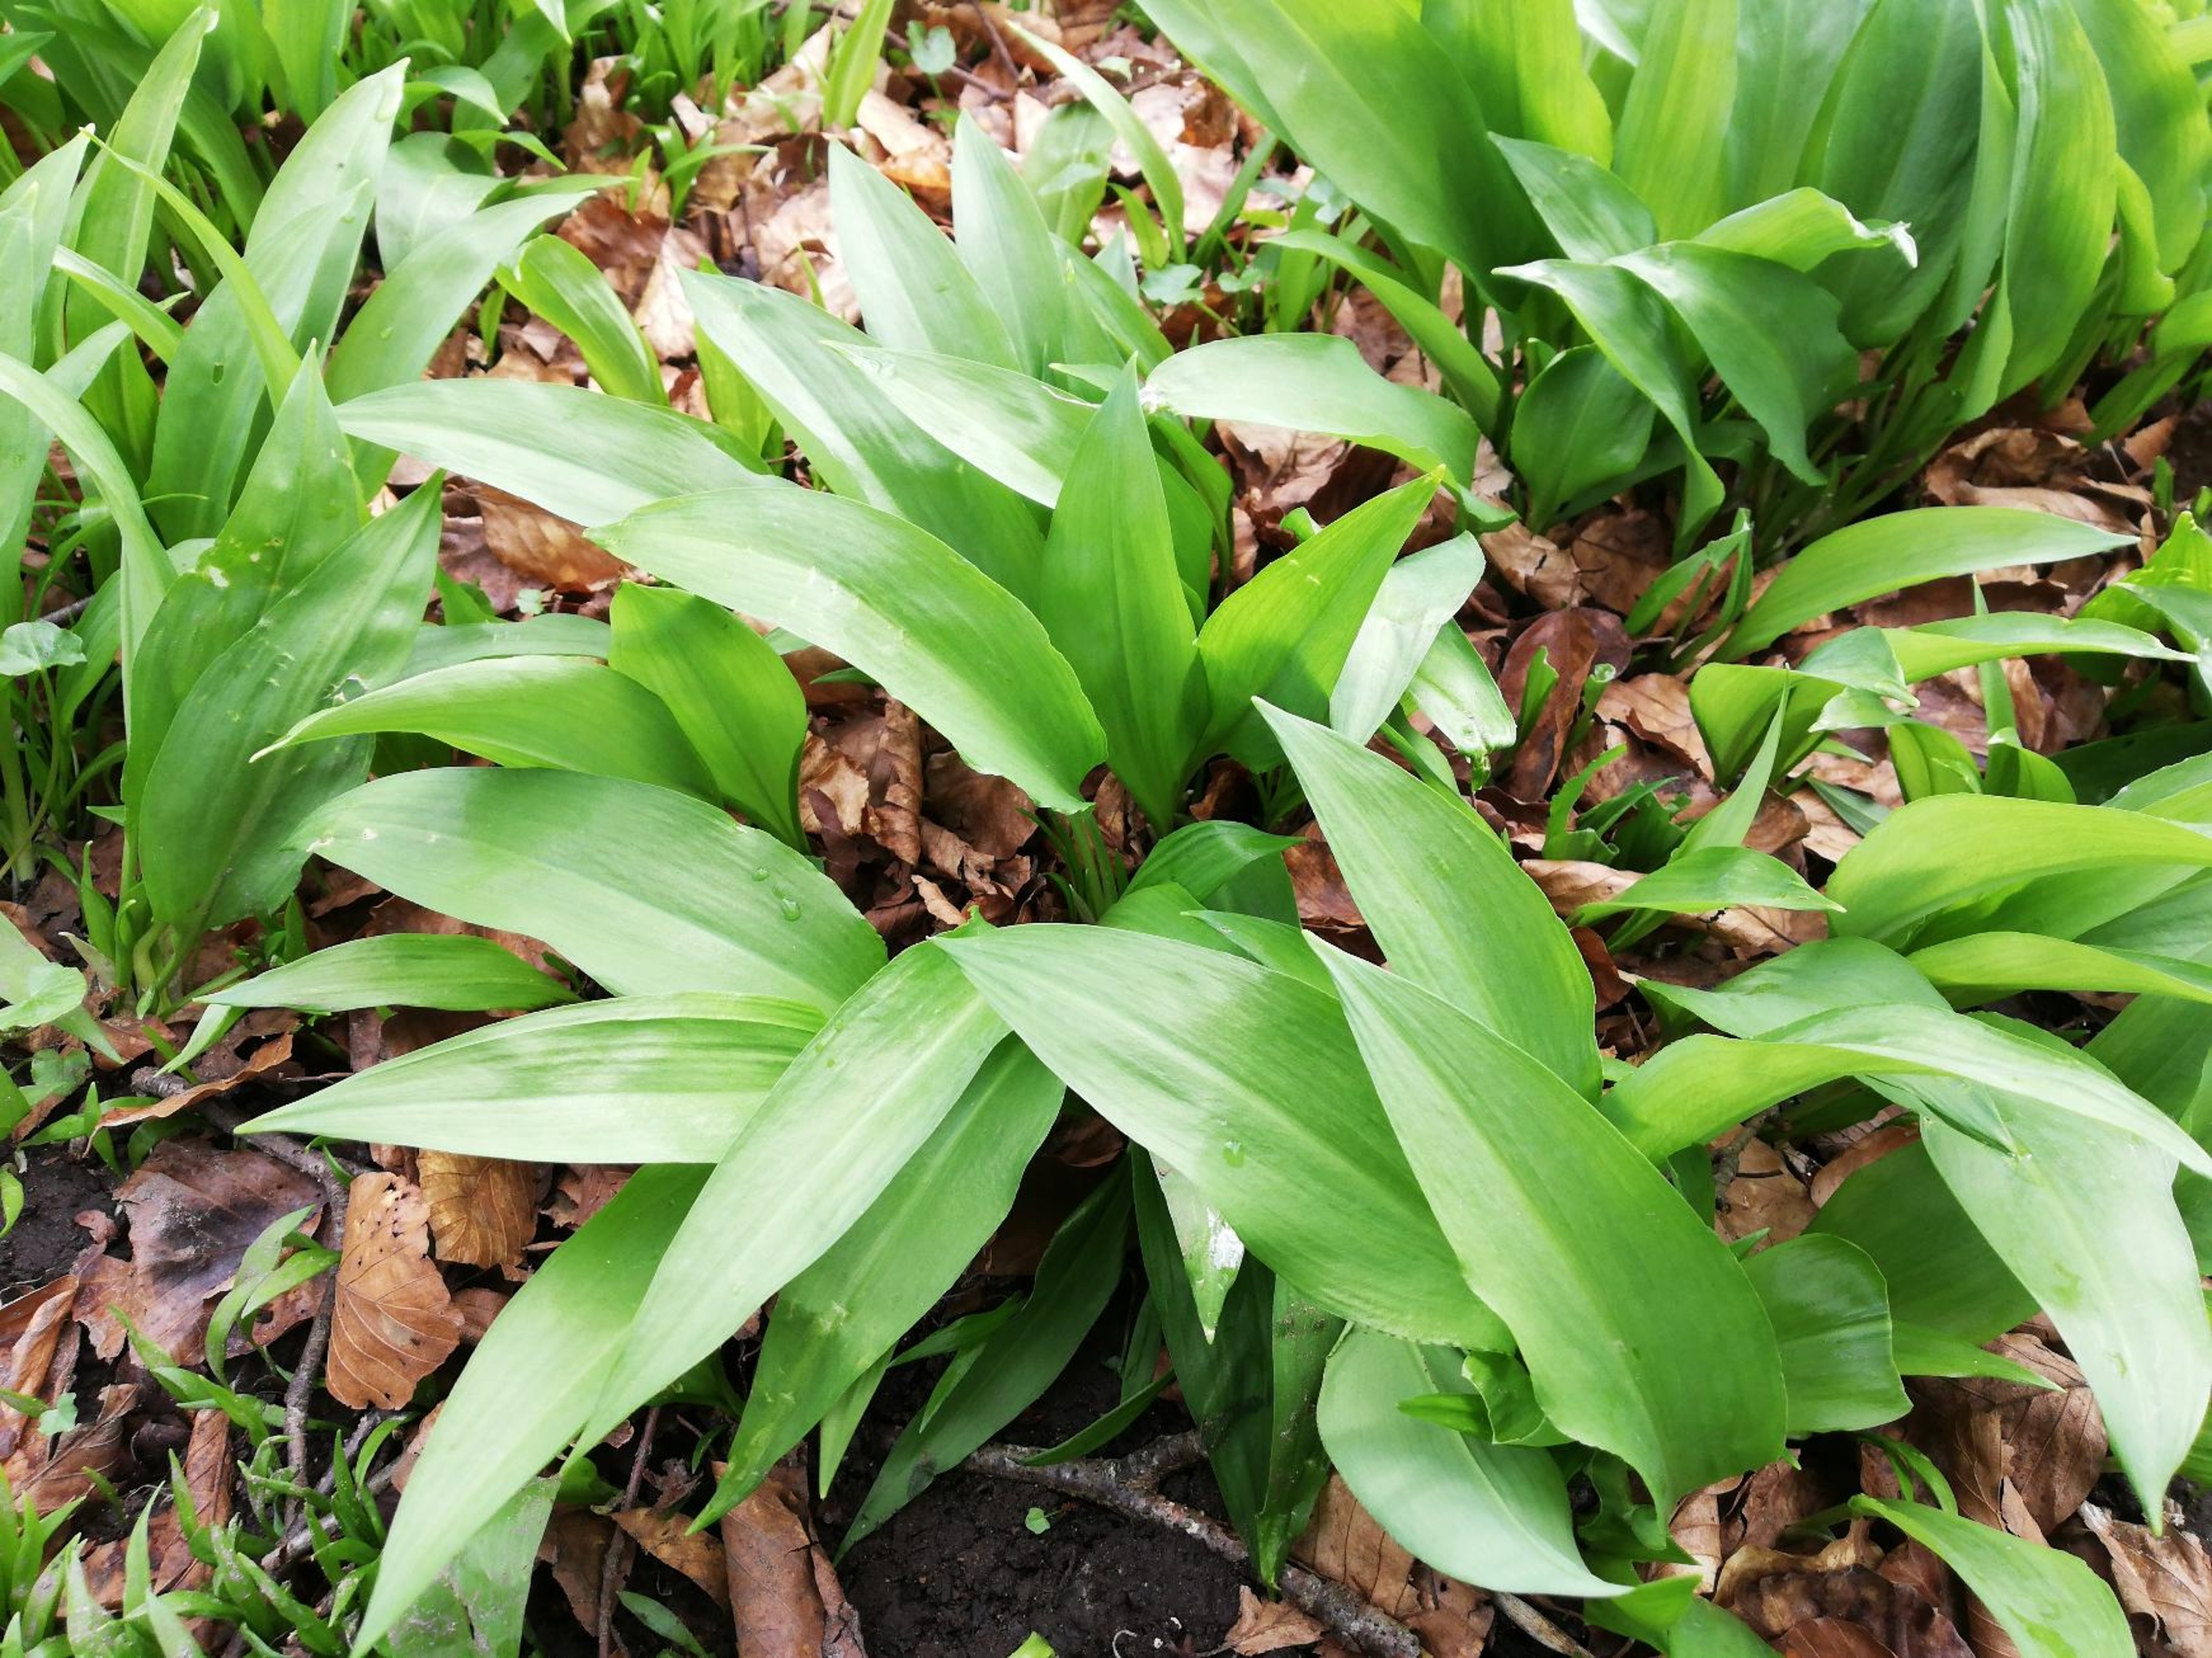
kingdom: Plantae
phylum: Tracheophyta
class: Liliopsida
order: Asparagales
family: Amaryllidaceae
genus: Allium
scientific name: Allium ursinum
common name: Rams-løg
